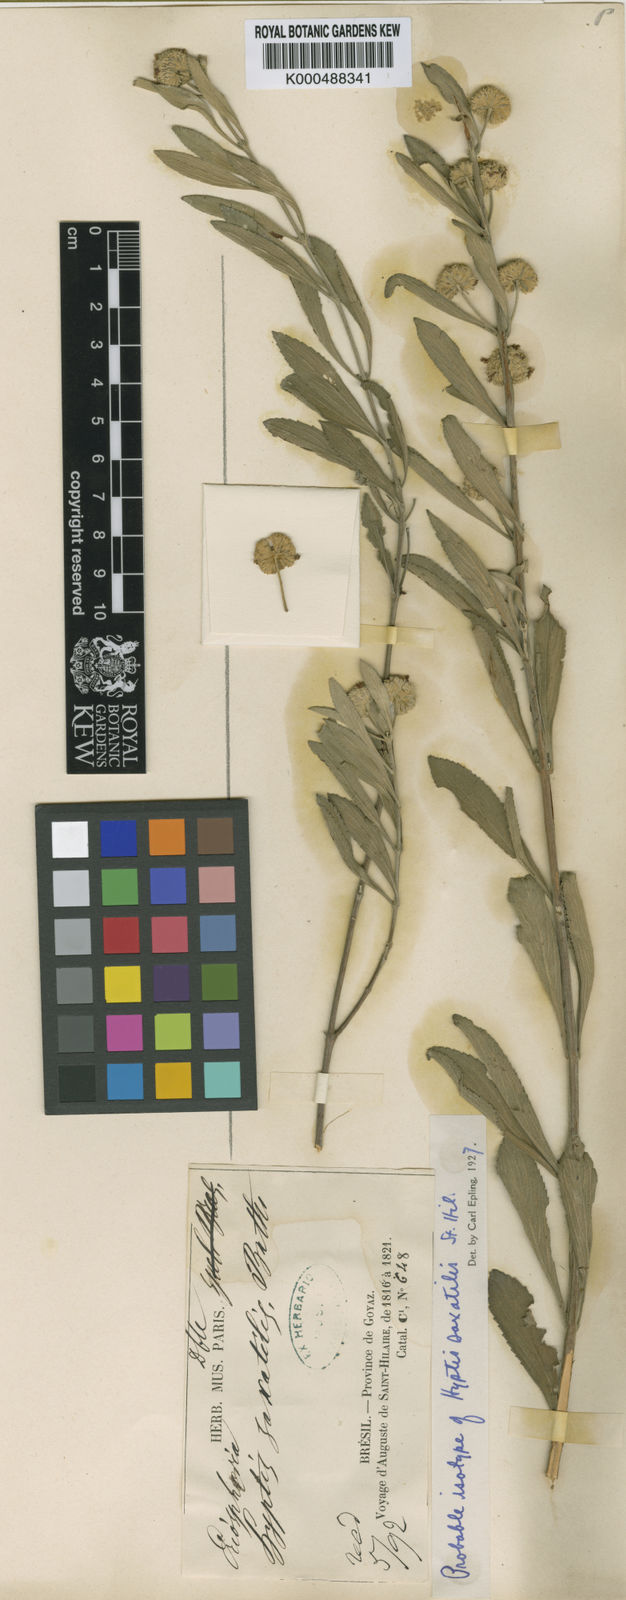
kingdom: Plantae
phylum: Tracheophyta
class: Magnoliopsida
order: Lamiales
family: Lamiaceae
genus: Hyptis
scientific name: Hyptis saxatilis
